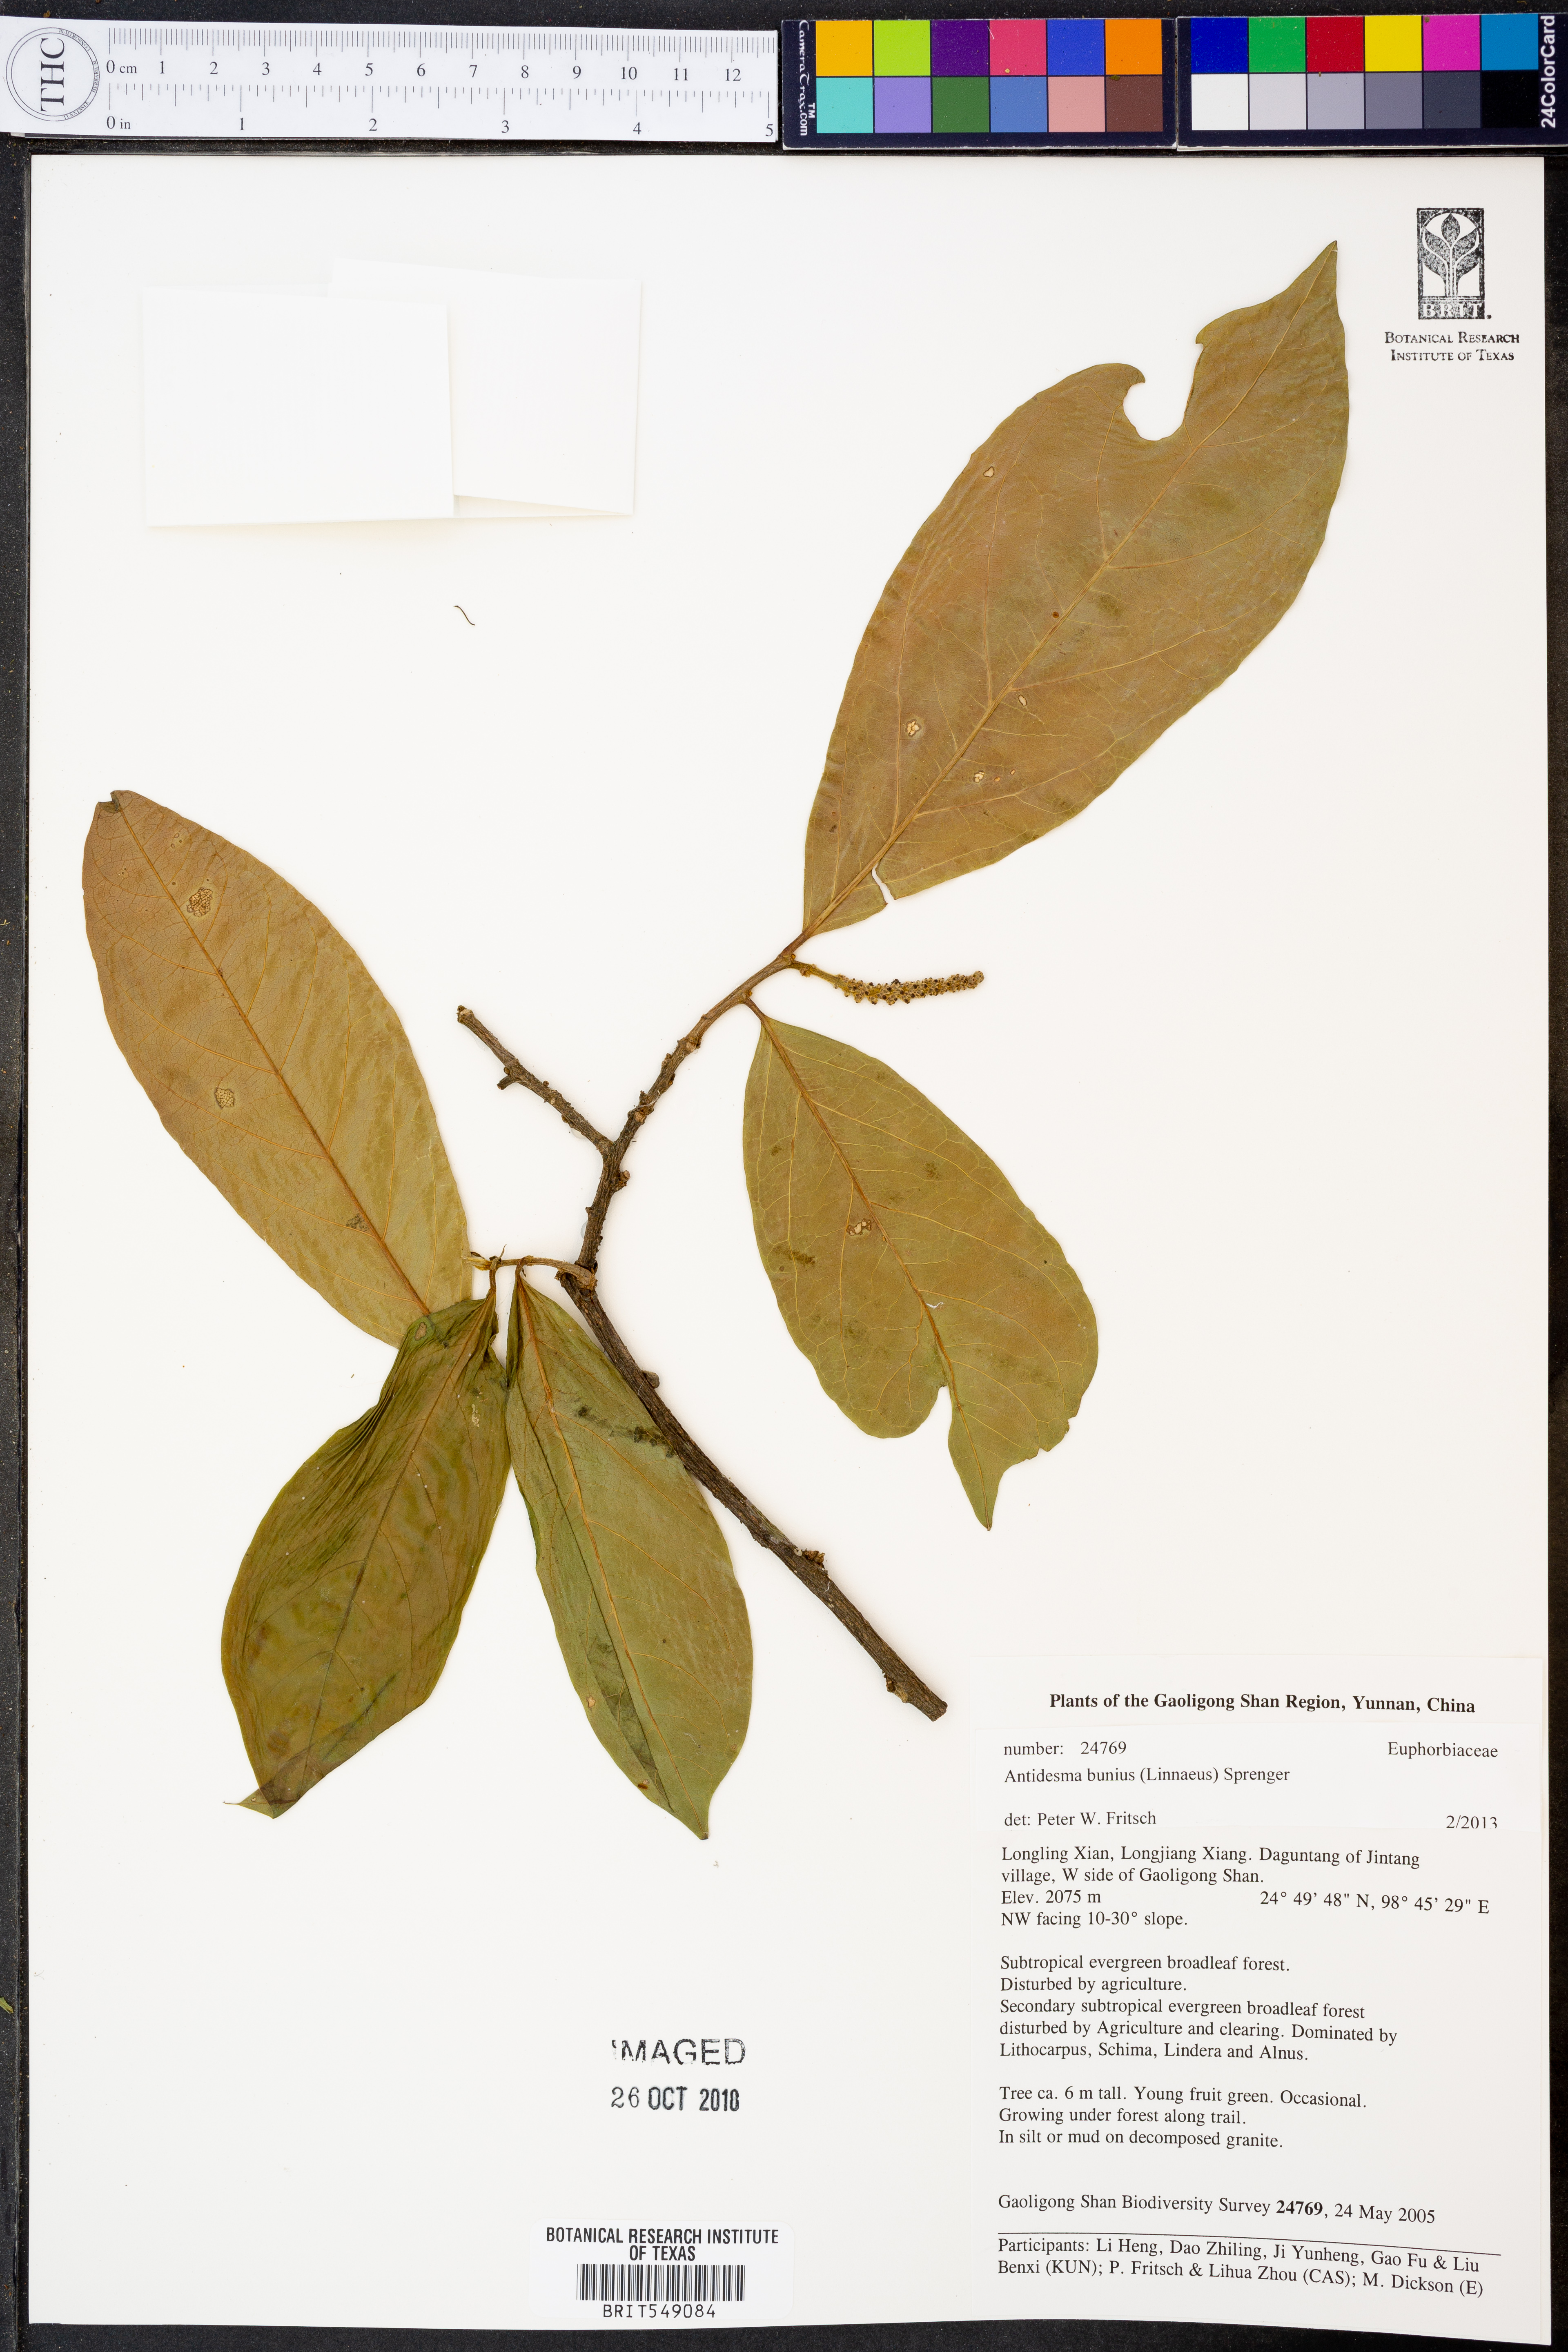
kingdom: Plantae
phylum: Tracheophyta
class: Magnoliopsida
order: Malpighiales
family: Phyllanthaceae
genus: Antidesma
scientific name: Antidesma bunius
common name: Chinese-laurel
